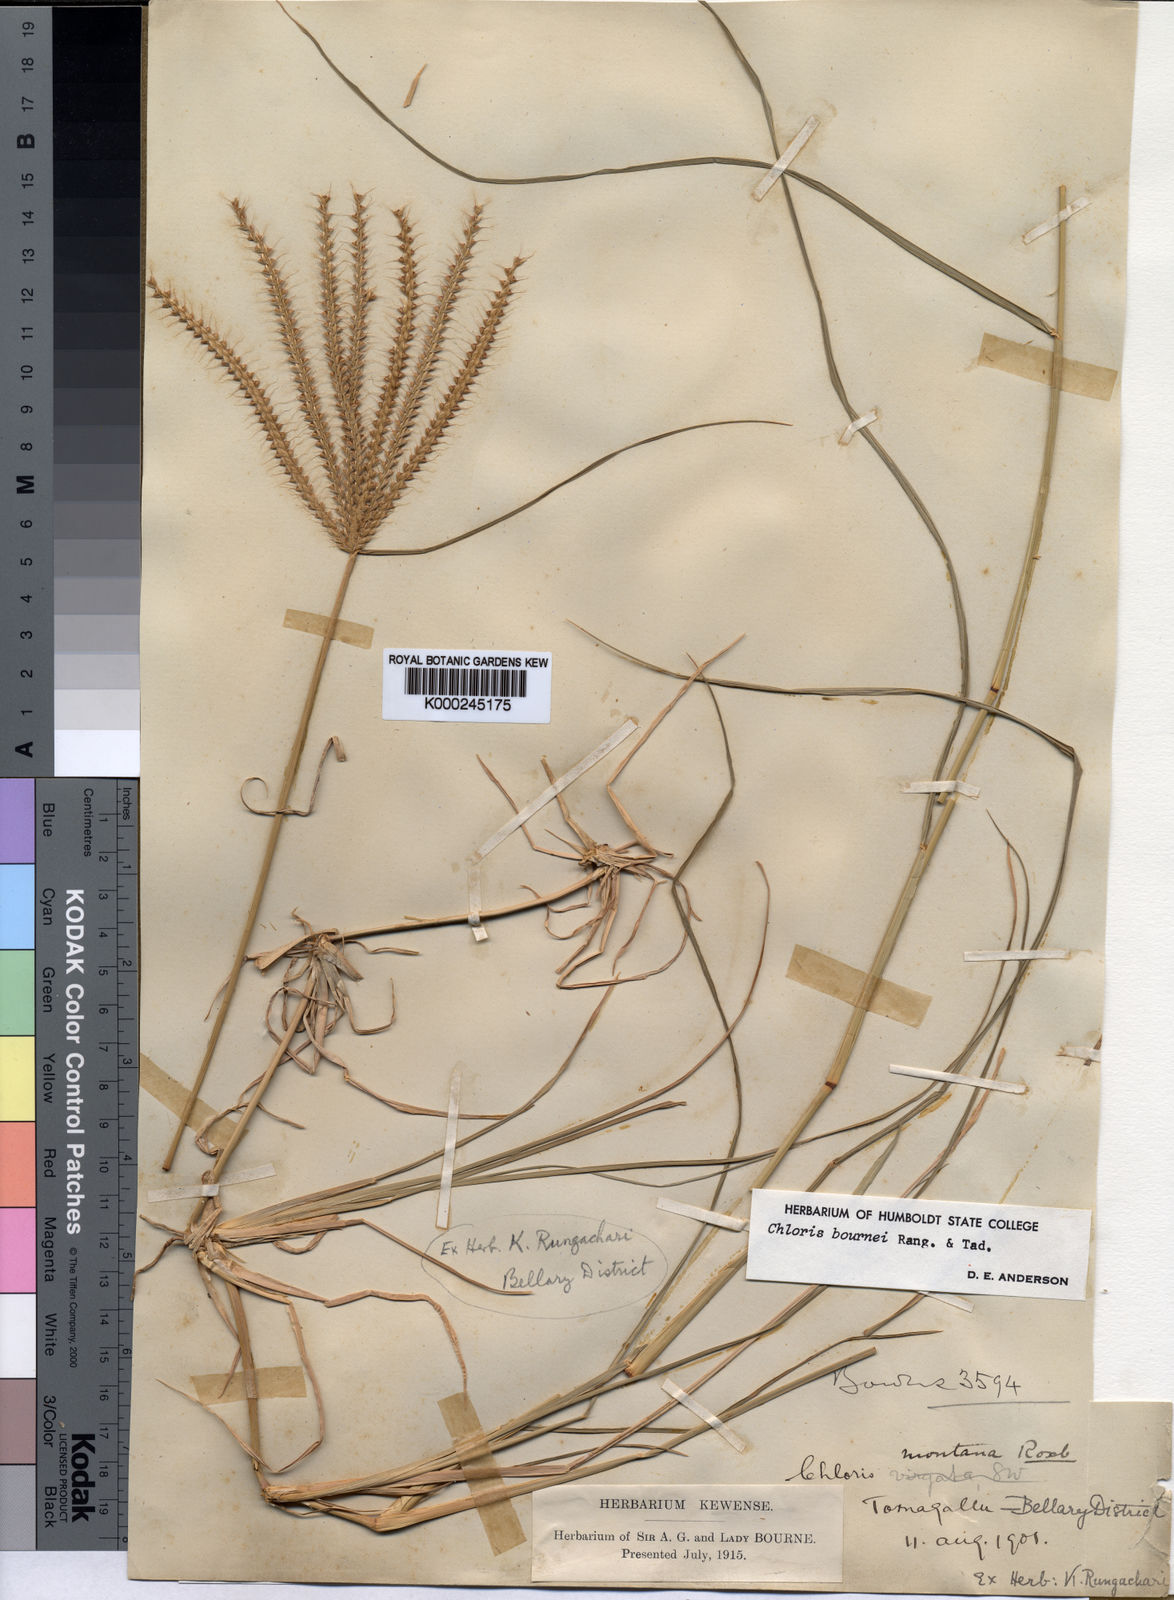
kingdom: Plantae
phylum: Tracheophyta
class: Liliopsida
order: Poales
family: Poaceae
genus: Chloris
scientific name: Chloris bournei
